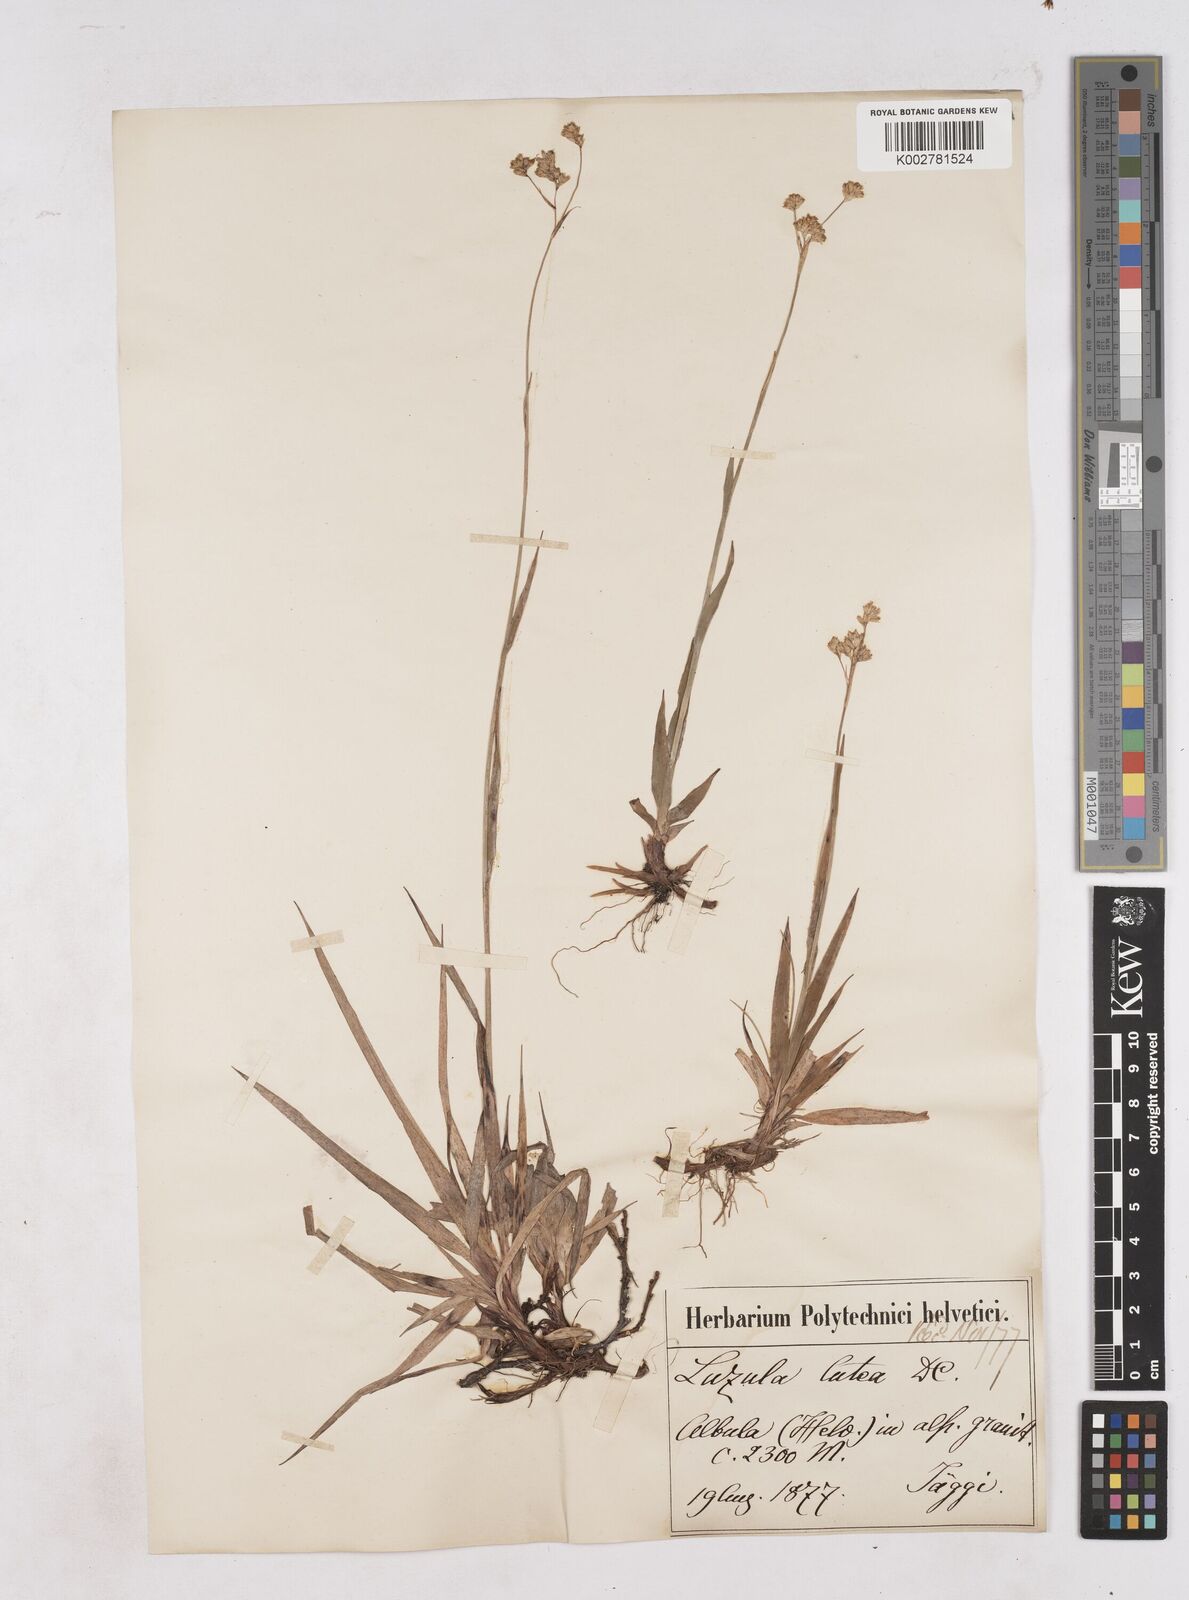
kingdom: Plantae
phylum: Tracheophyta
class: Liliopsida
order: Poales
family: Juncaceae
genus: Luzula
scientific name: Luzula lutea
